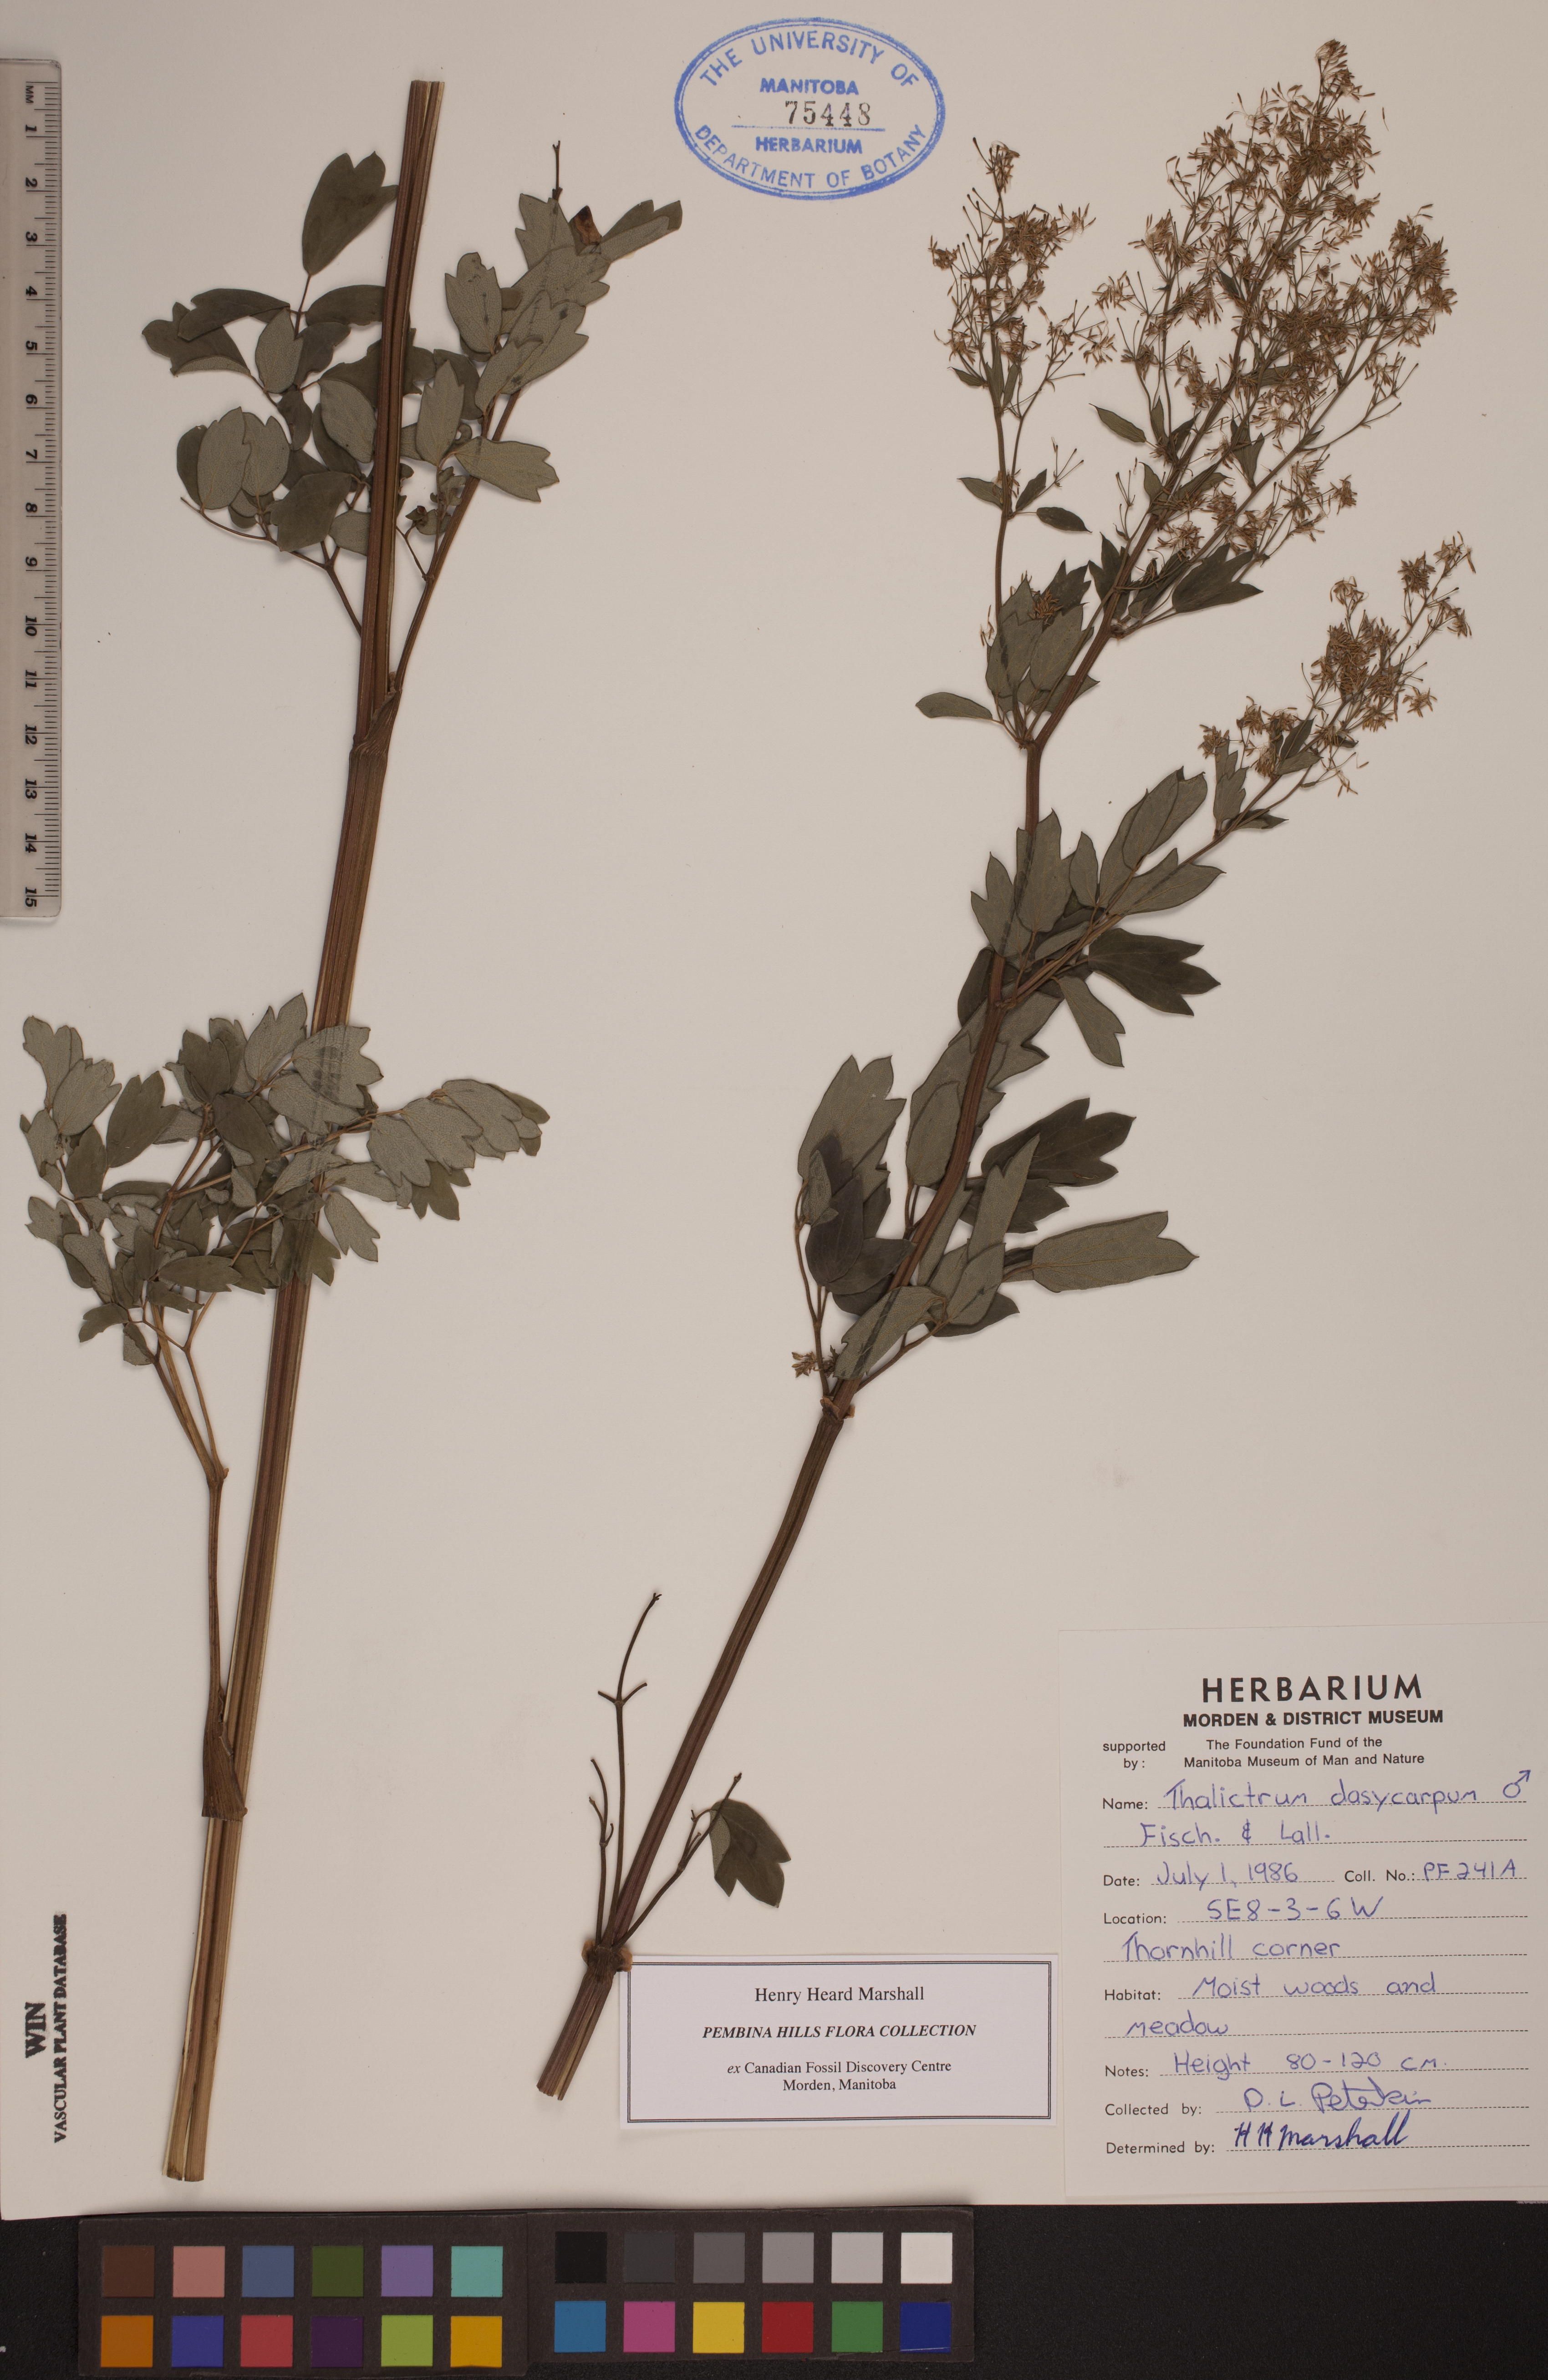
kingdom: Plantae
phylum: Tracheophyta
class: Magnoliopsida
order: Ranunculales
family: Ranunculaceae
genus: Thalictrum
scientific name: Thalictrum dasycarpum
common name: Purple meadow-rue
